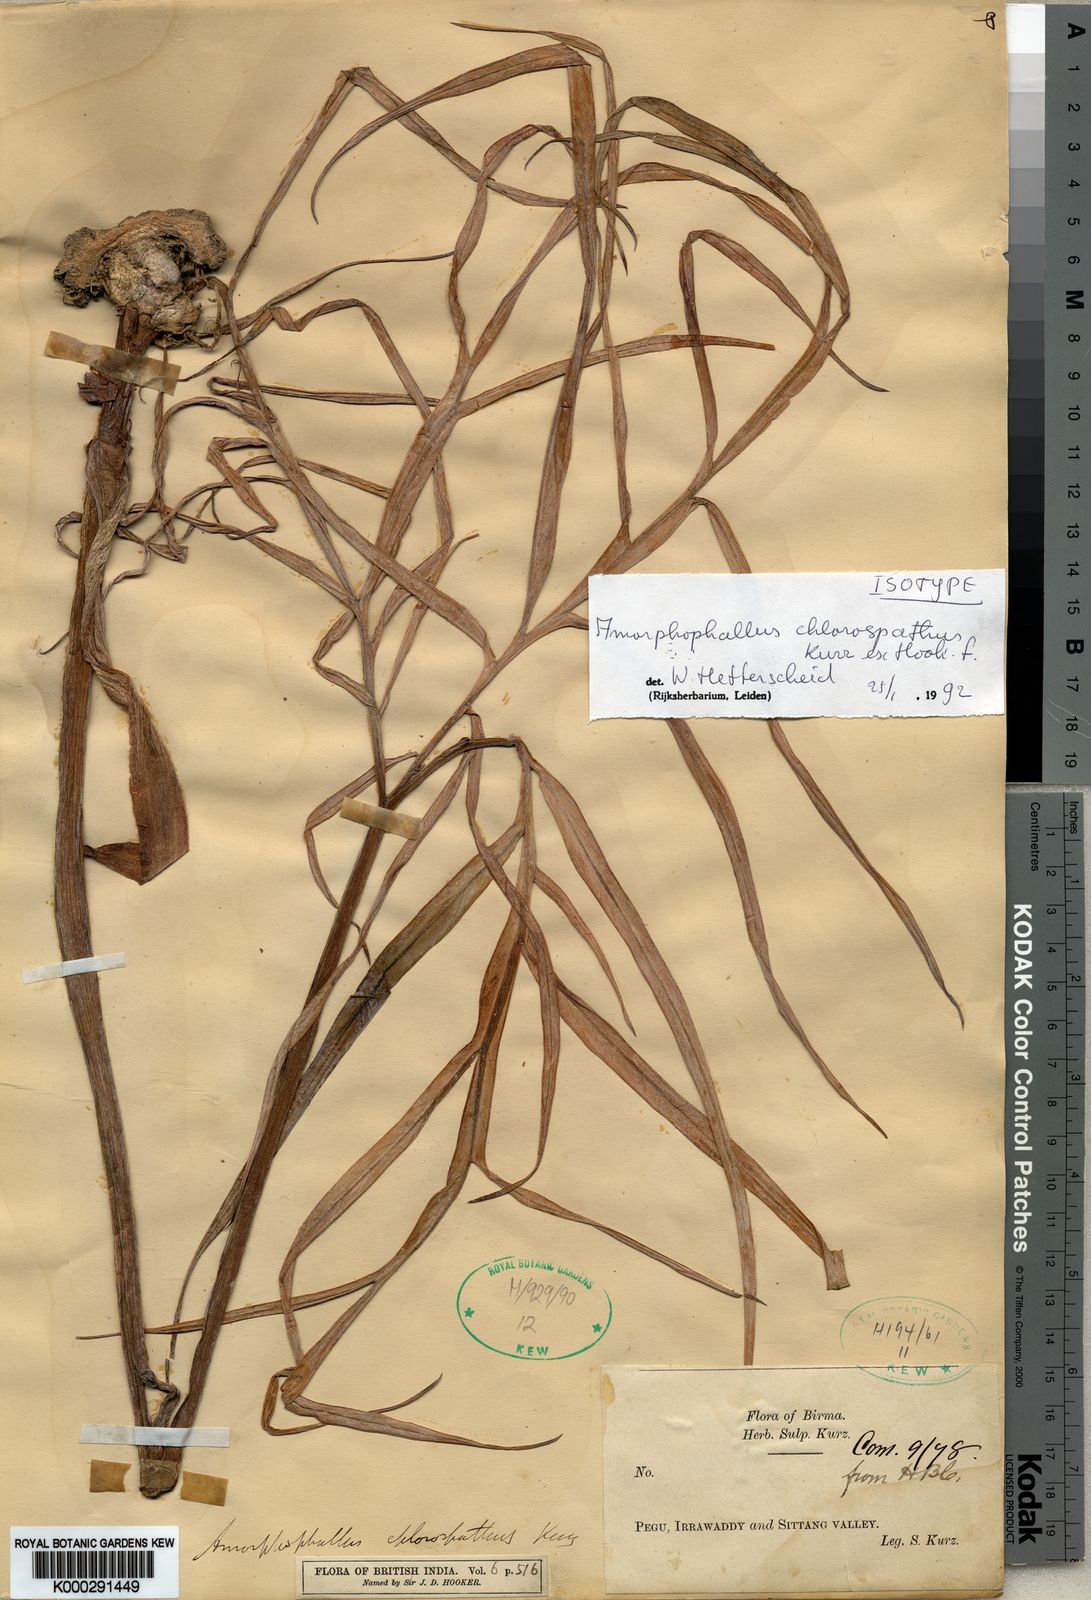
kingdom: Plantae
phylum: Tracheophyta
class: Liliopsida
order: Alismatales
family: Araceae
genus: Amorphophallus
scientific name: Amorphophallus chlorospathus
